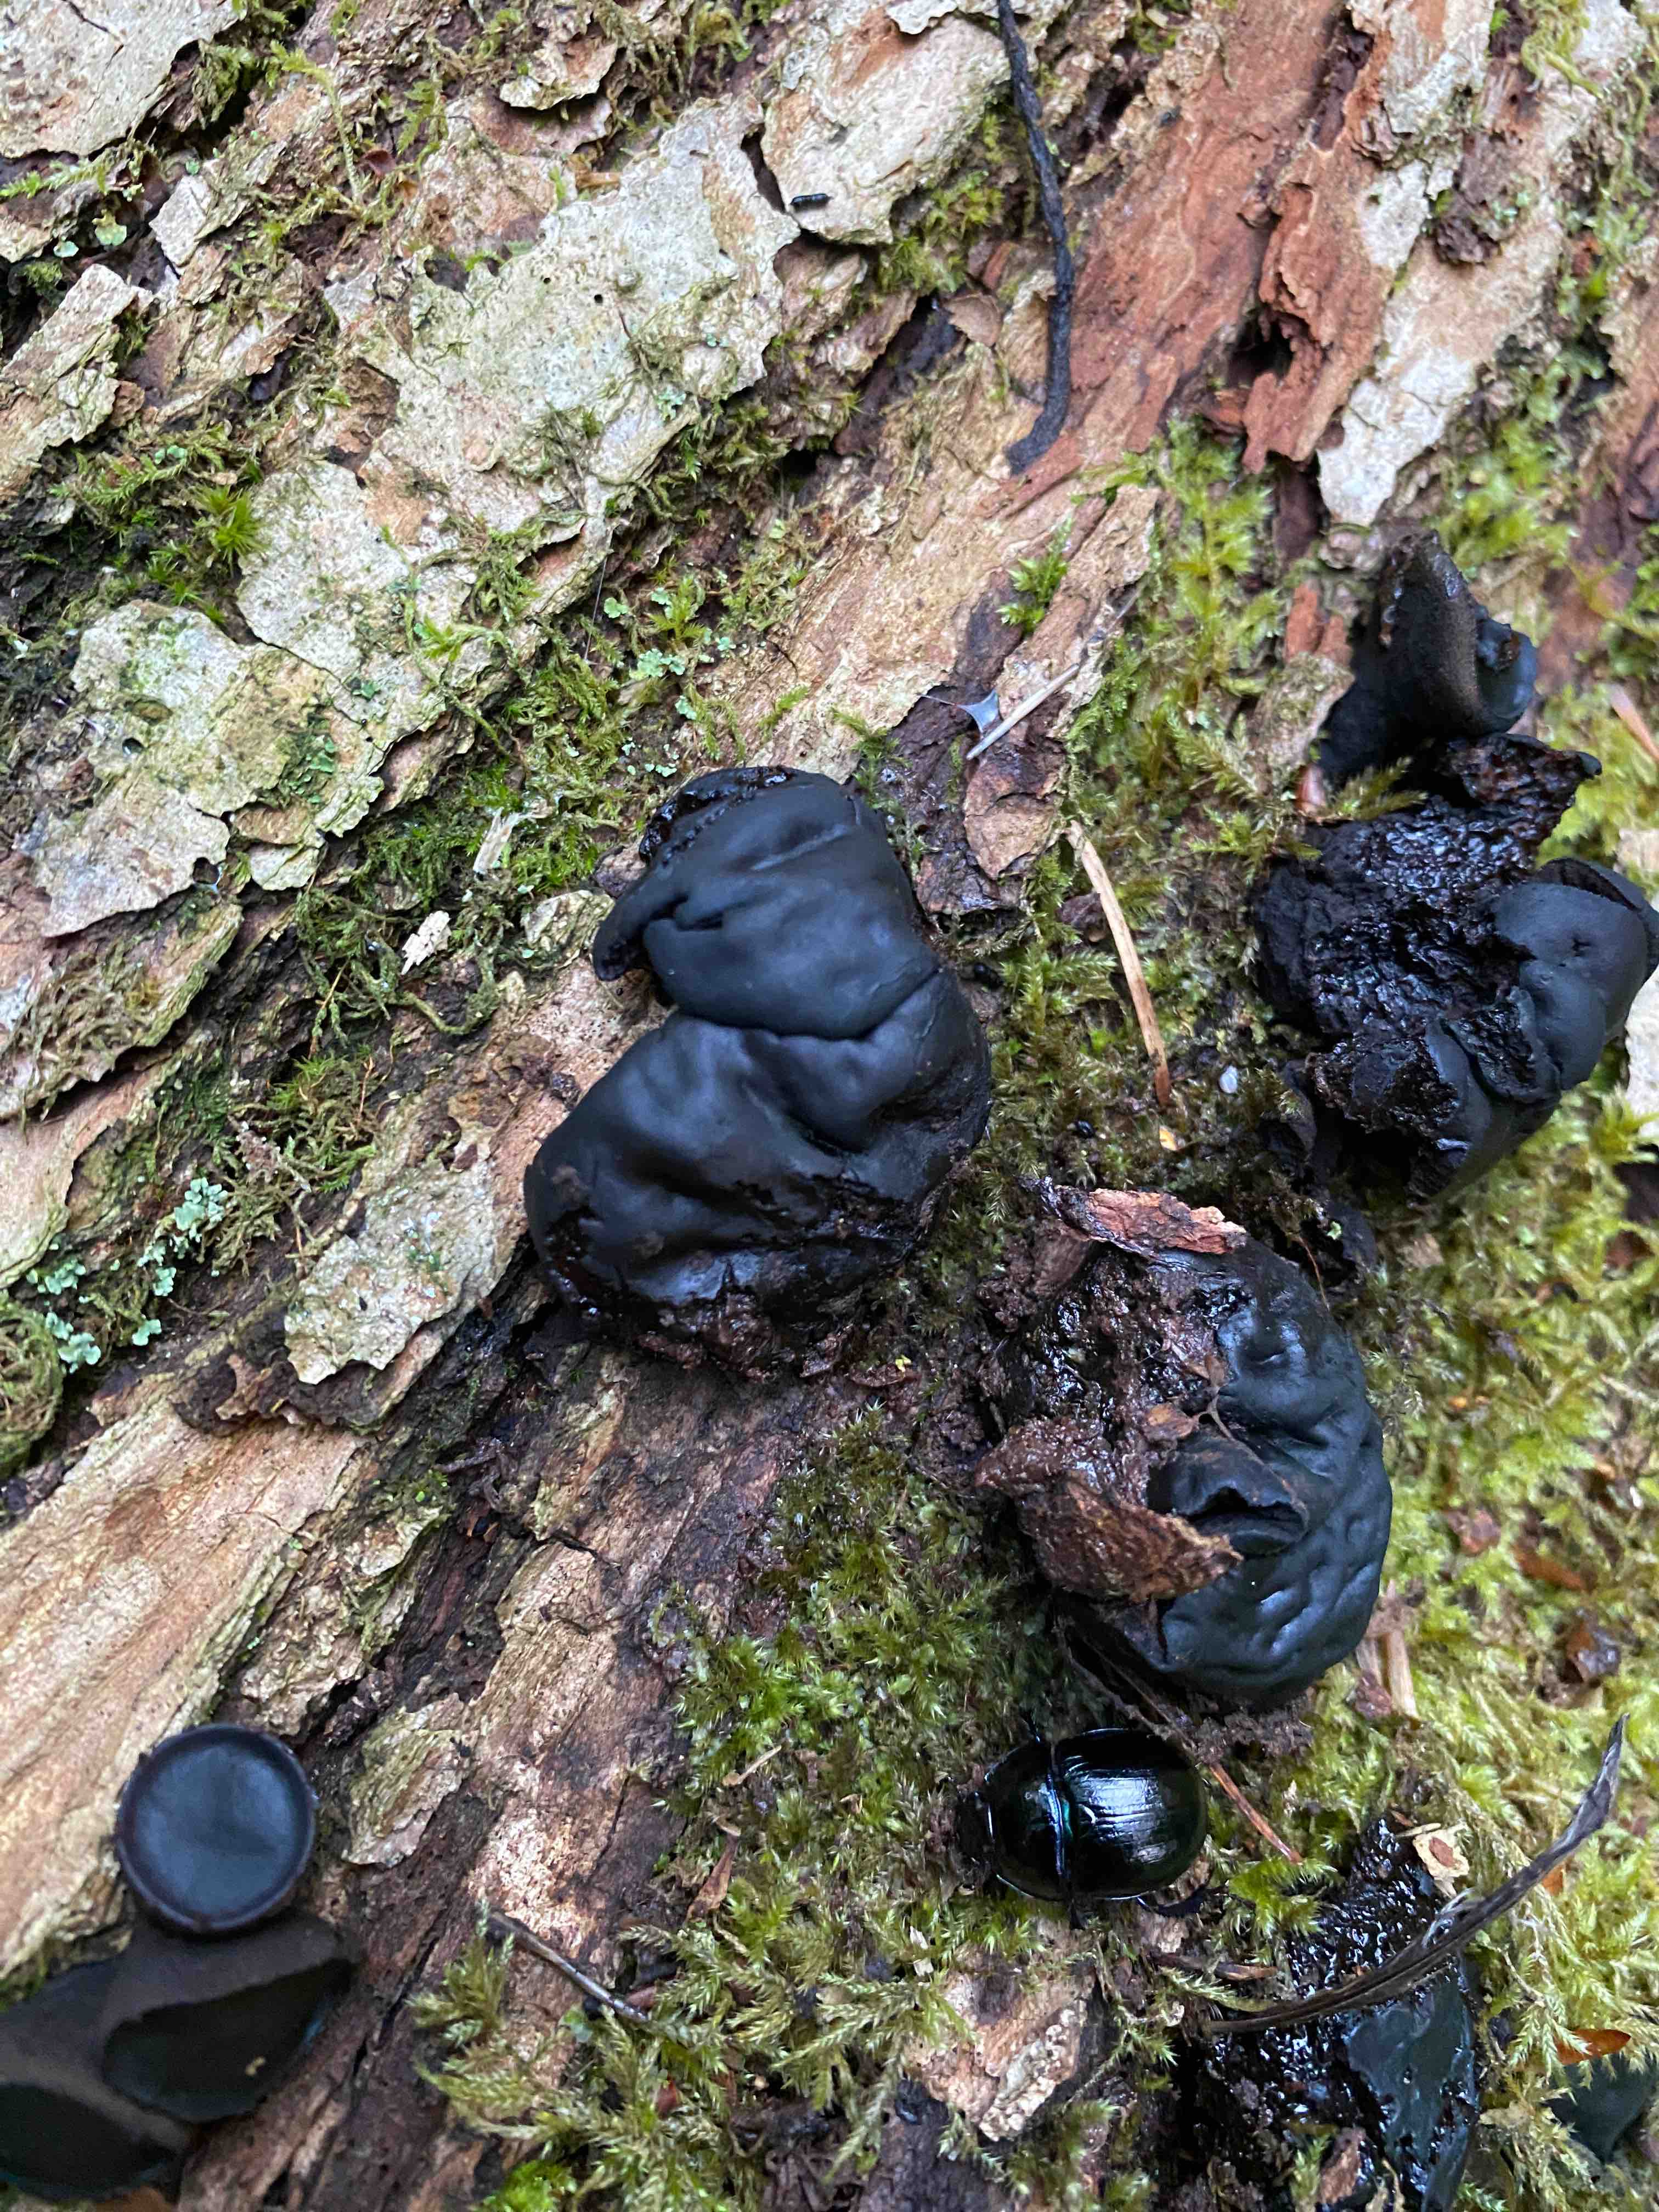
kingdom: Fungi
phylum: Ascomycota
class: Leotiomycetes
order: Phacidiales
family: Phacidiaceae
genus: Bulgaria
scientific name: Bulgaria inquinans
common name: afsmittende topsvamp
